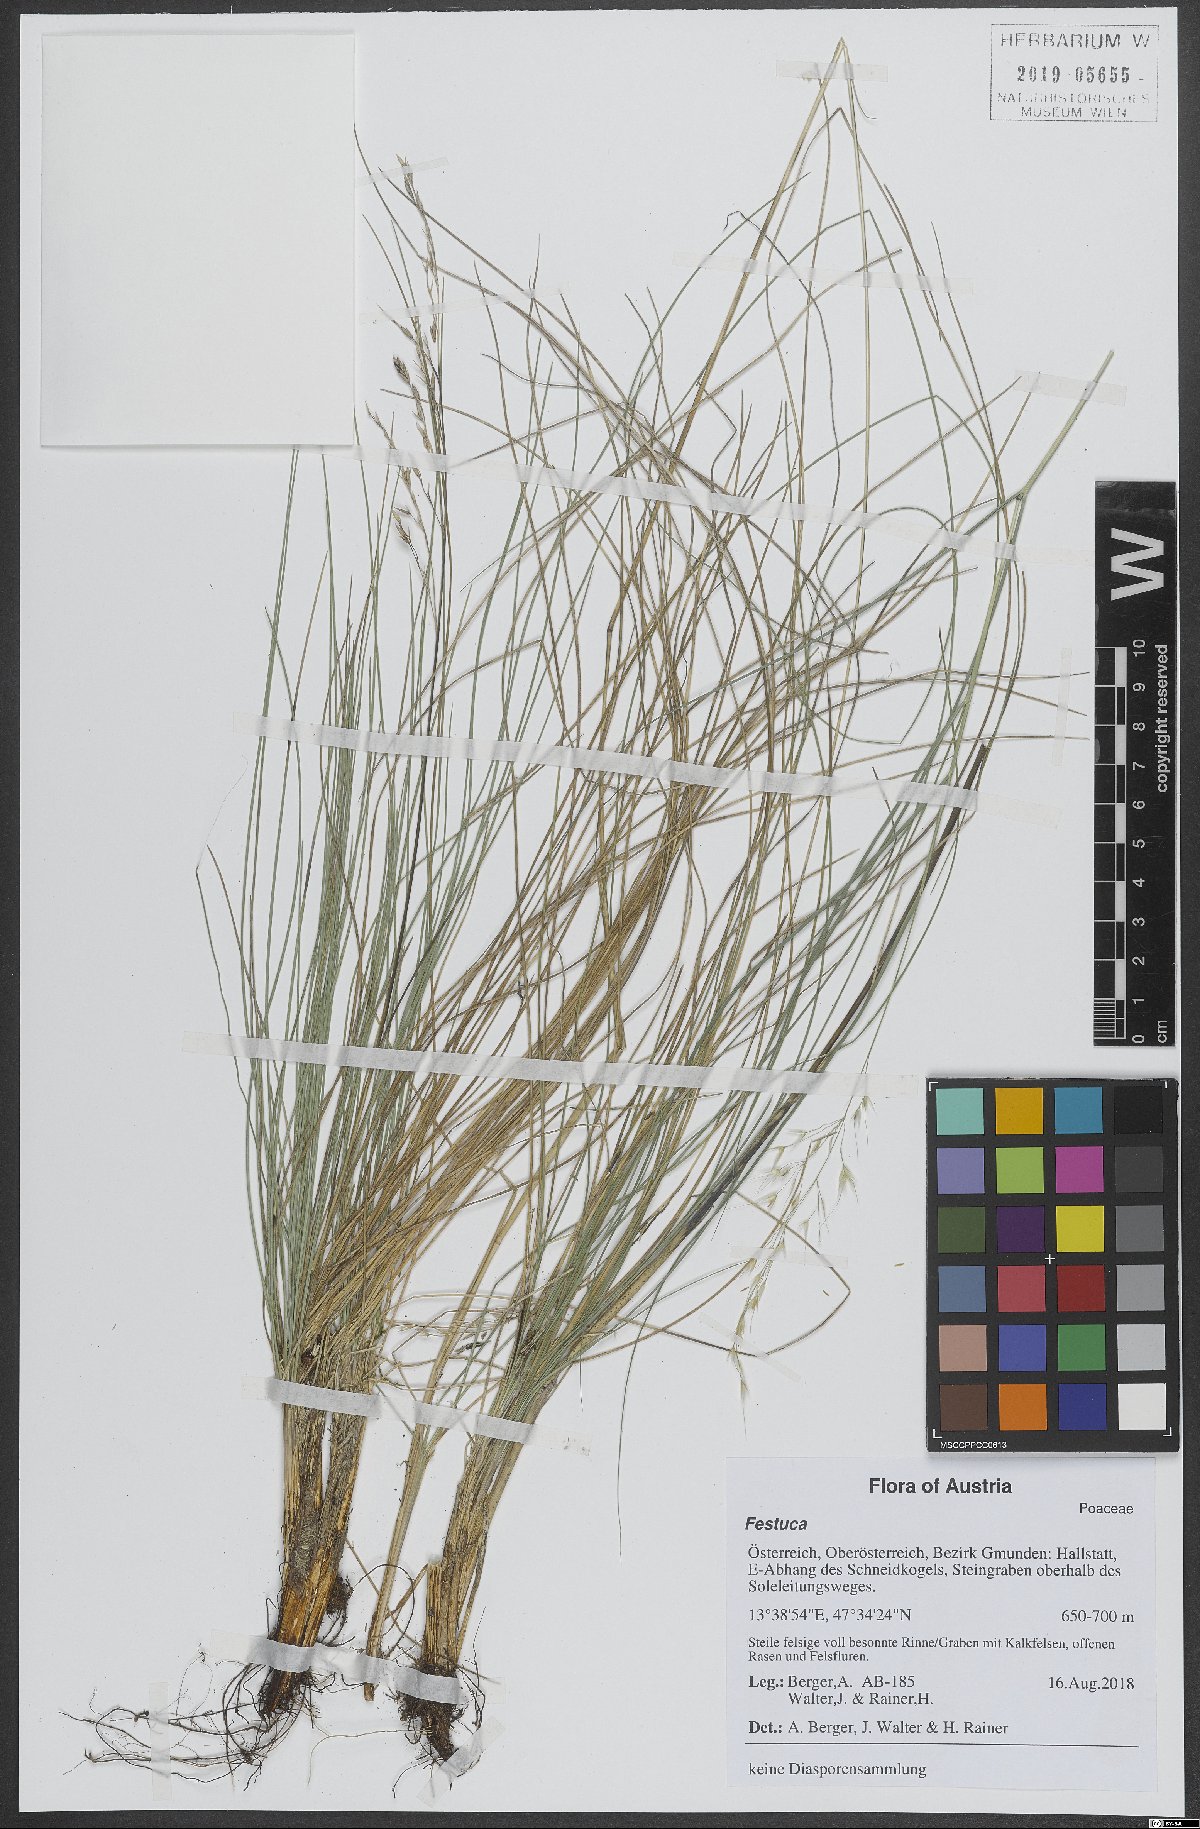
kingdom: Plantae
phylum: Tracheophyta
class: Liliopsida
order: Poales
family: Poaceae
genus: Festuca
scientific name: Festuca
